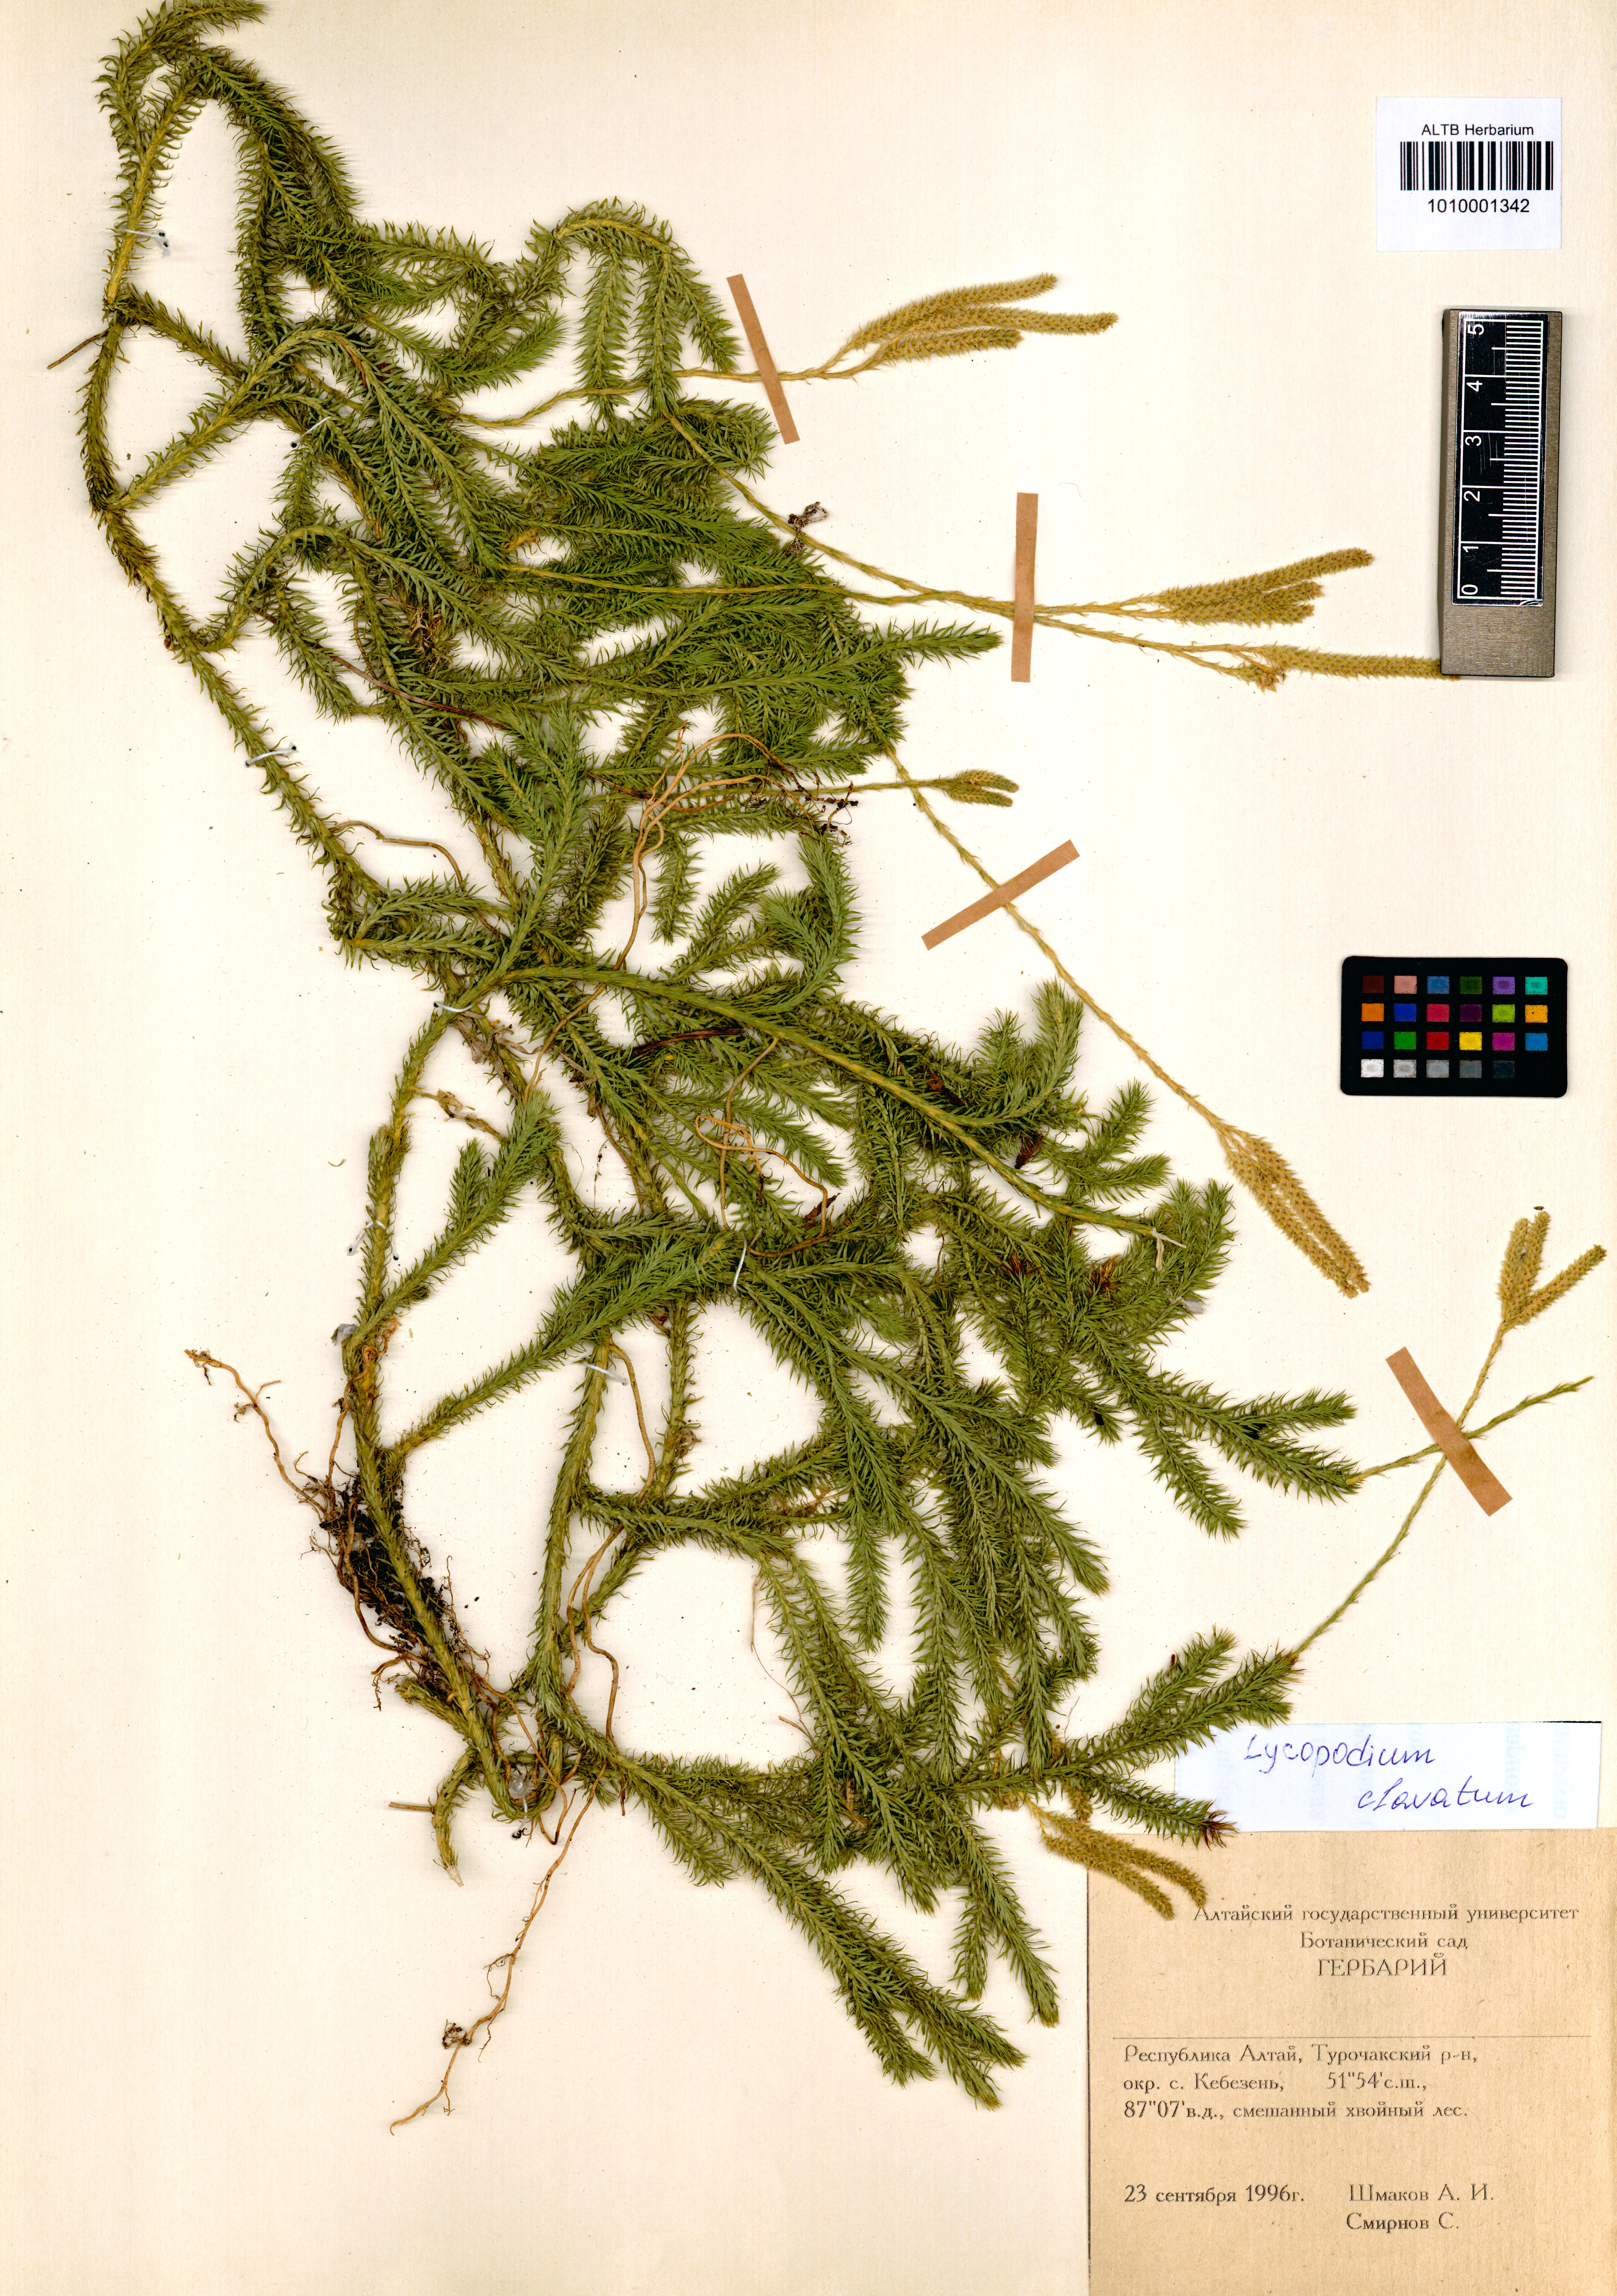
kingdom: Plantae
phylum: Tracheophyta
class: Lycopodiopsida
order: Lycopodiales
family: Lycopodiaceae
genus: Lycopodium
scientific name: Lycopodium clavatum
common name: Stag's-horn clubmoss
